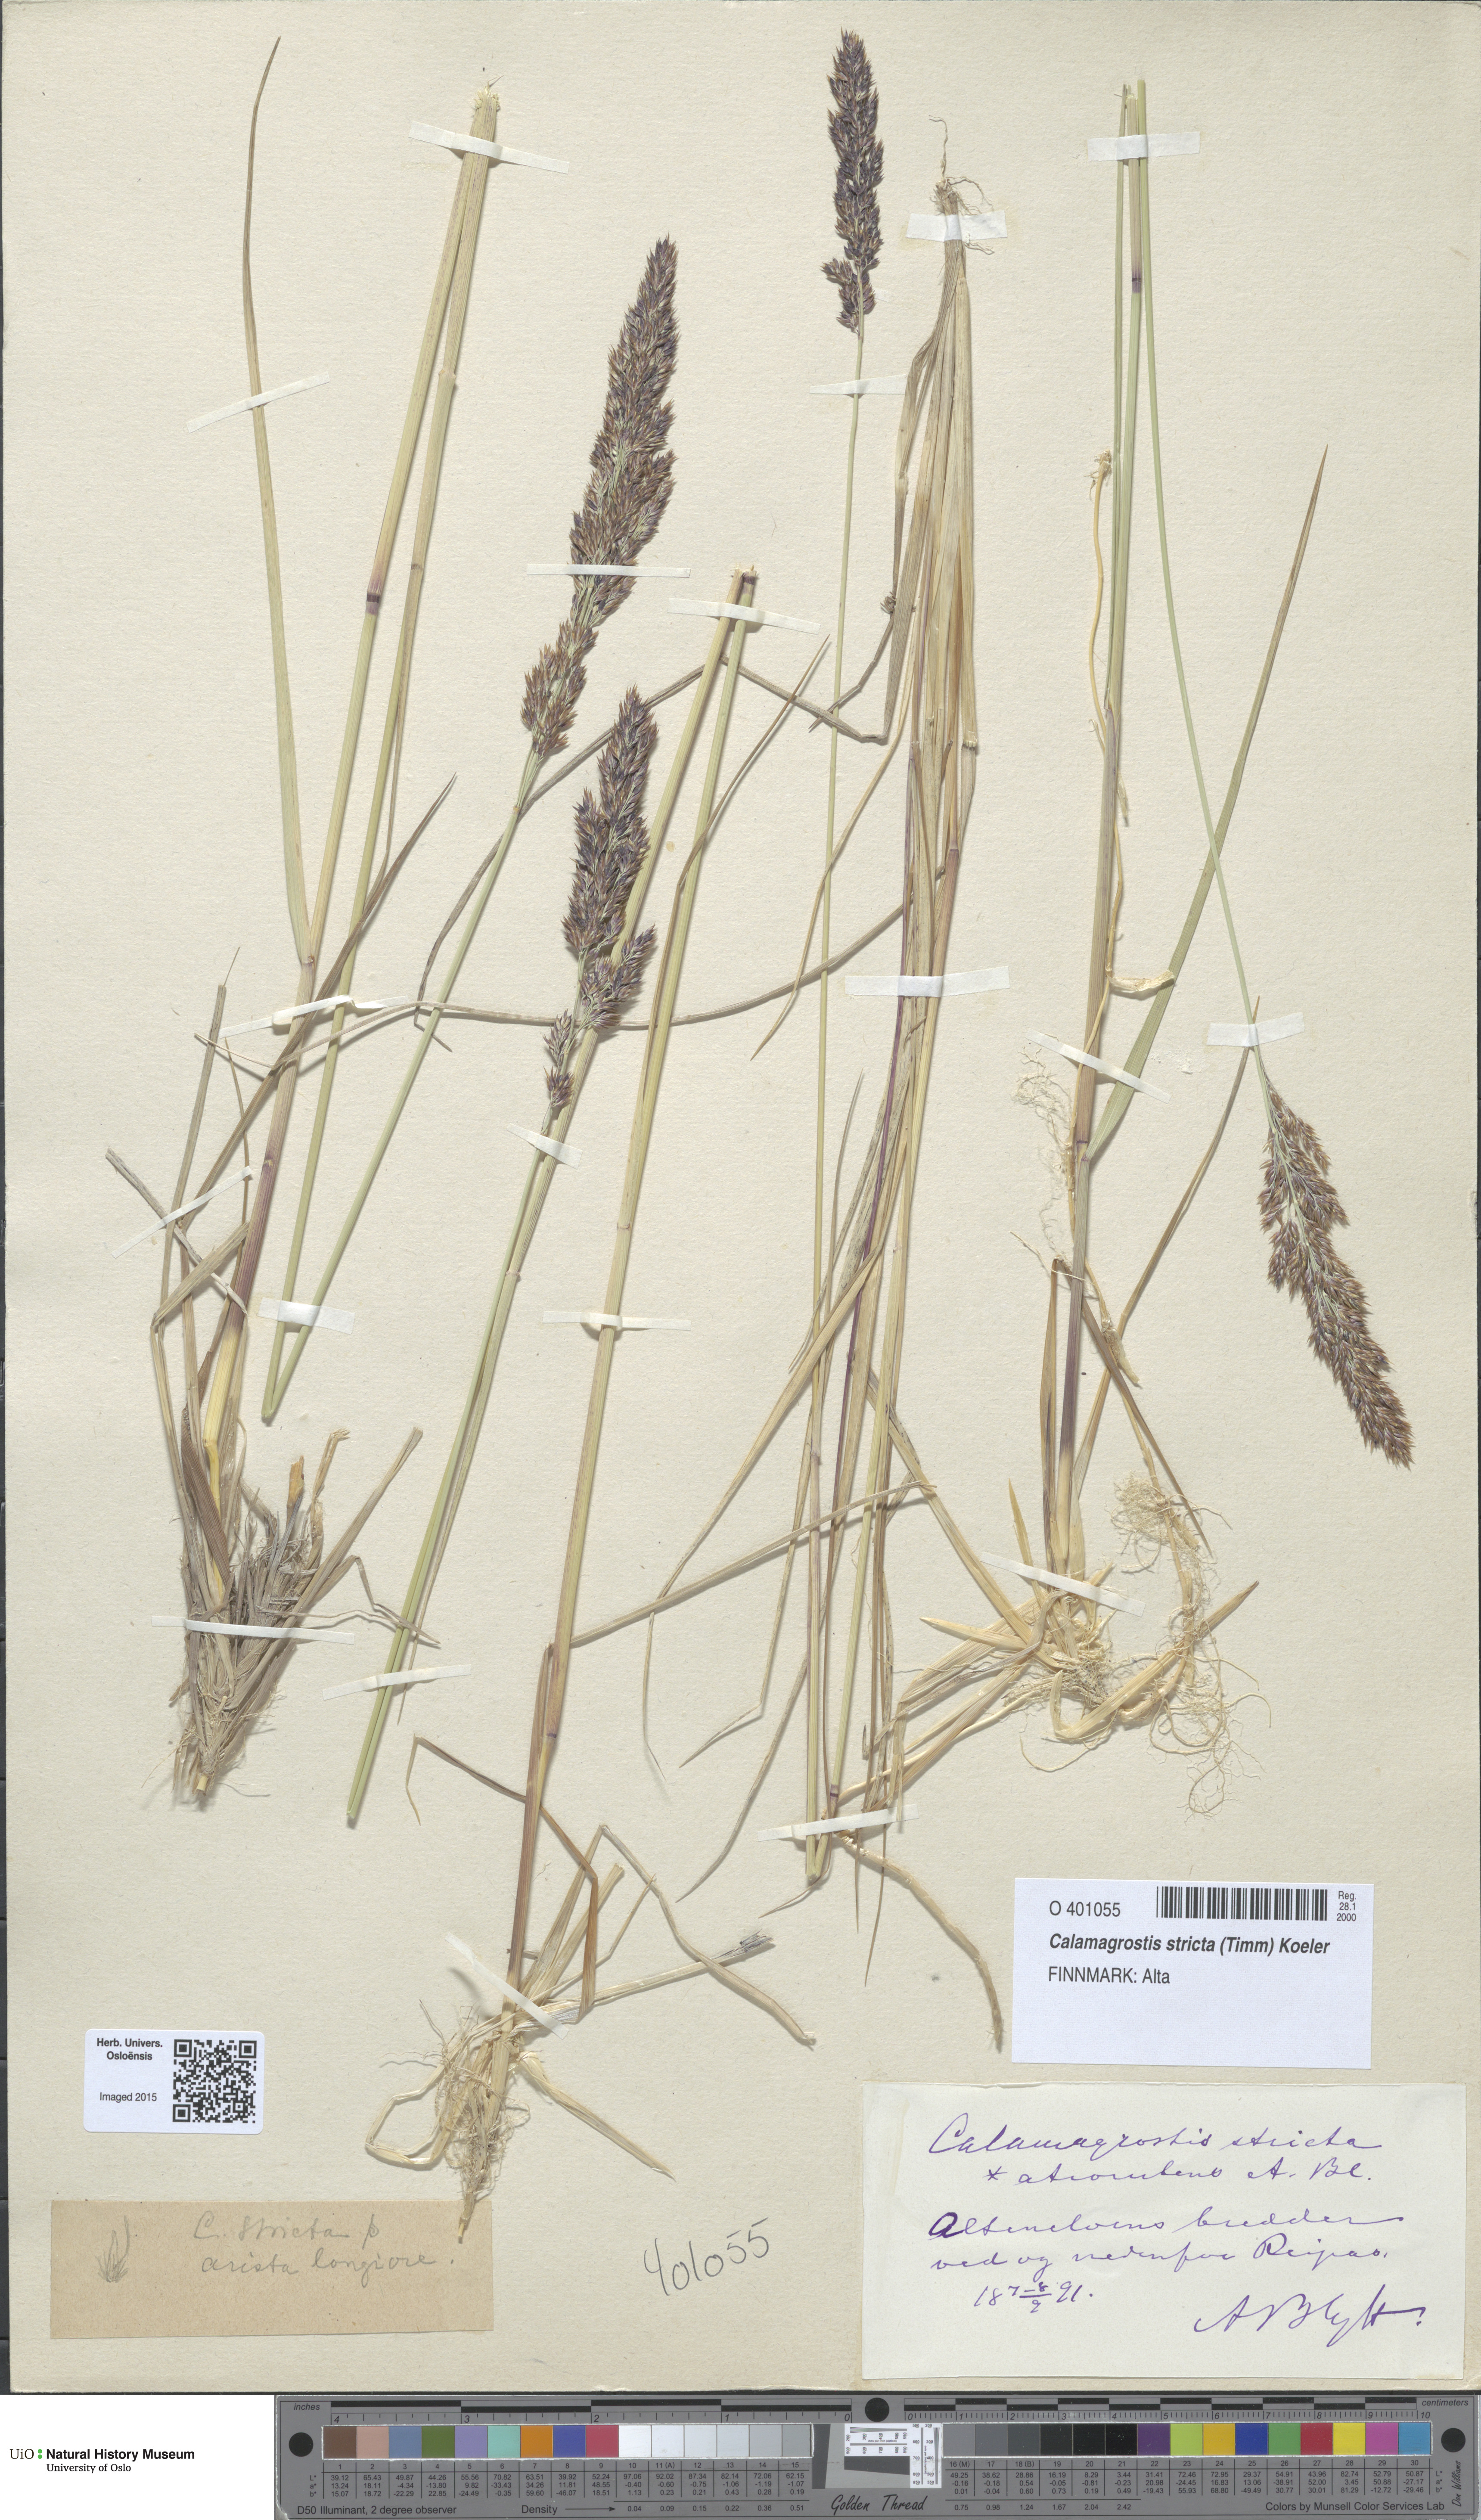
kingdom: Plantae
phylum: Tracheophyta
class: Liliopsida
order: Poales
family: Poaceae
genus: Achnatherum
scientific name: Achnatherum calamagrostis
